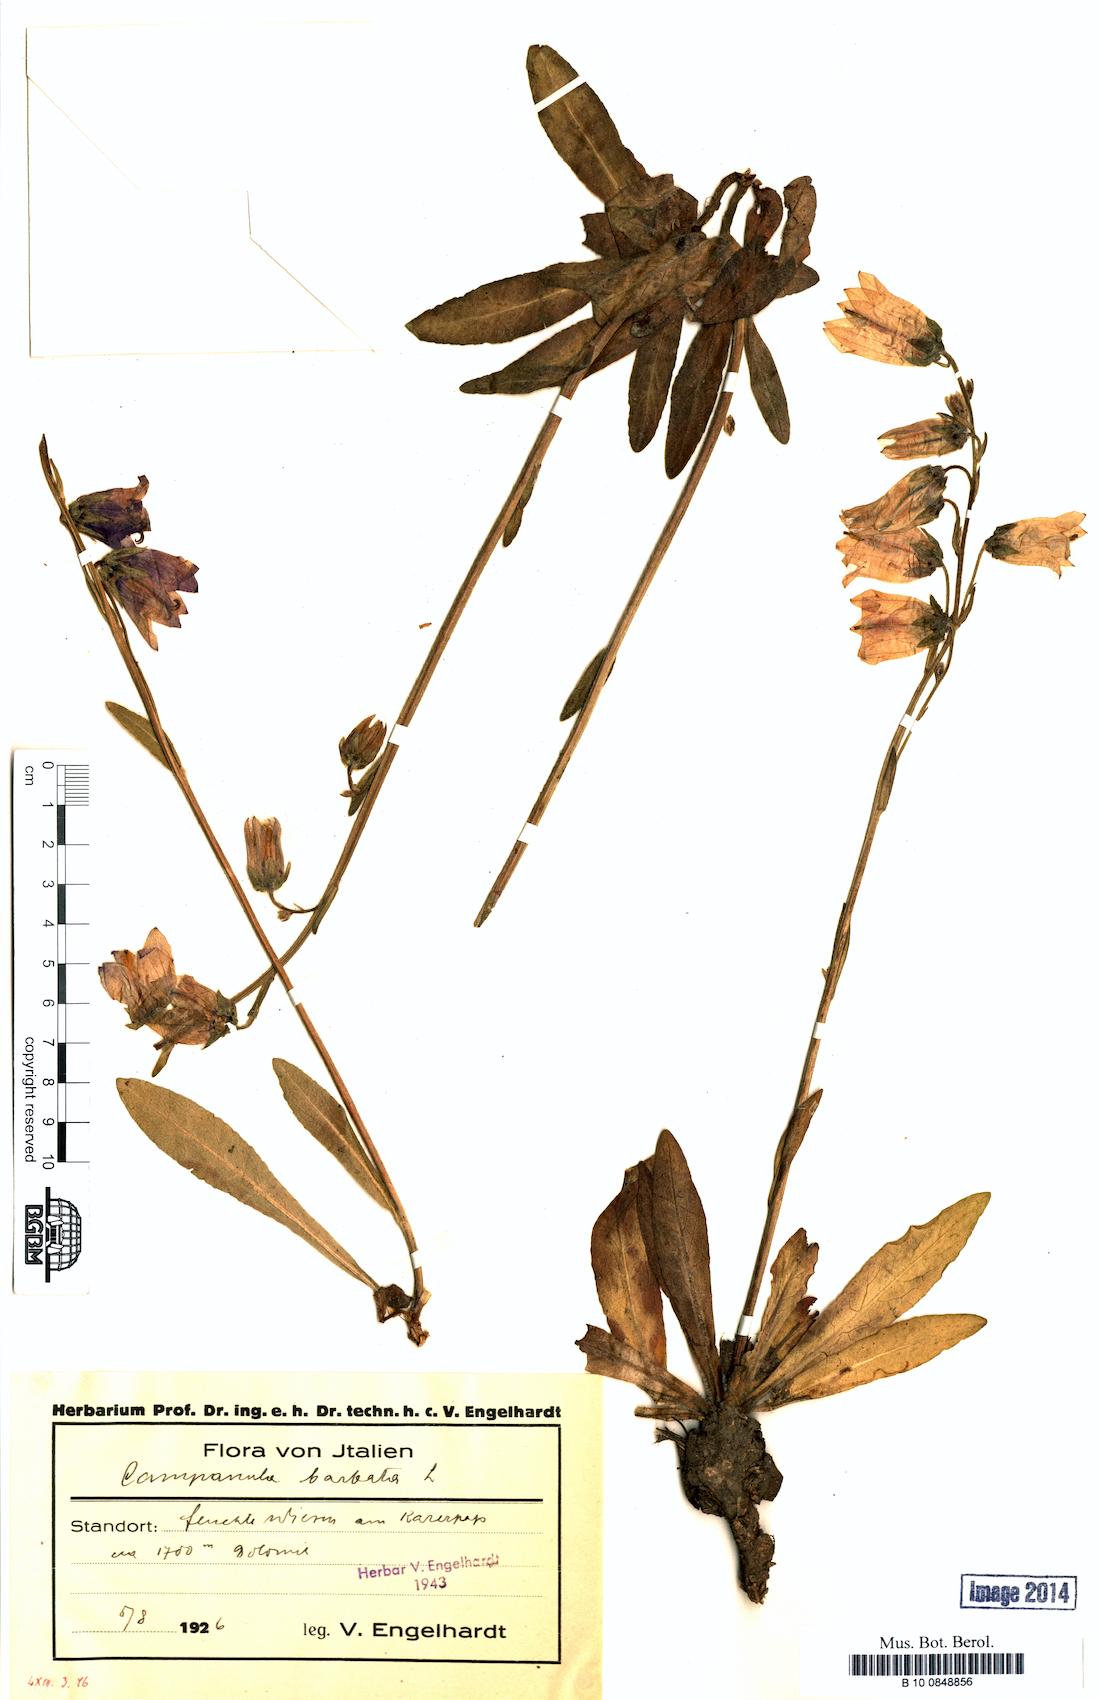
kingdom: Plantae
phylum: Tracheophyta
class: Magnoliopsida
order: Asterales
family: Campanulaceae
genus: Campanula
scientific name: Campanula barbata
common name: Bearded bellflower
